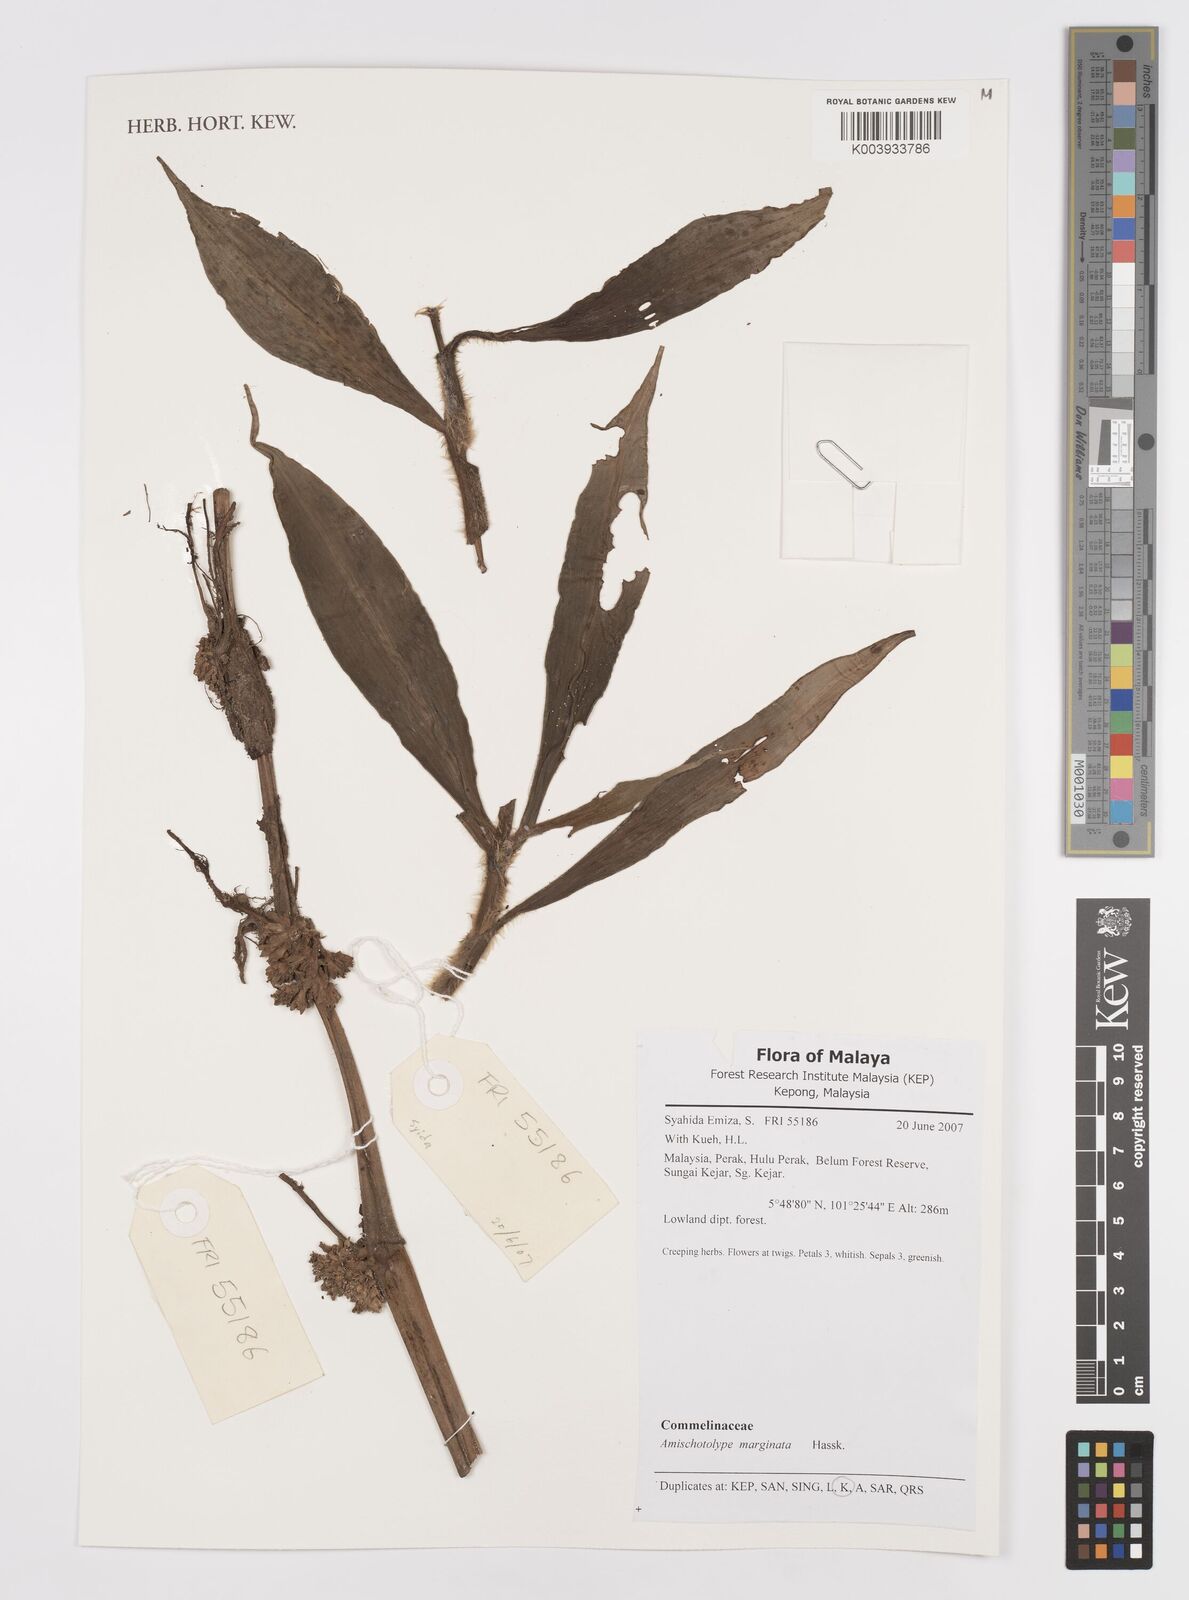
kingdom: Plantae
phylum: Tracheophyta
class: Liliopsida
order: Commelinales
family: Commelinaceae
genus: Amischotolype
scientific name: Amischotolype marginata
